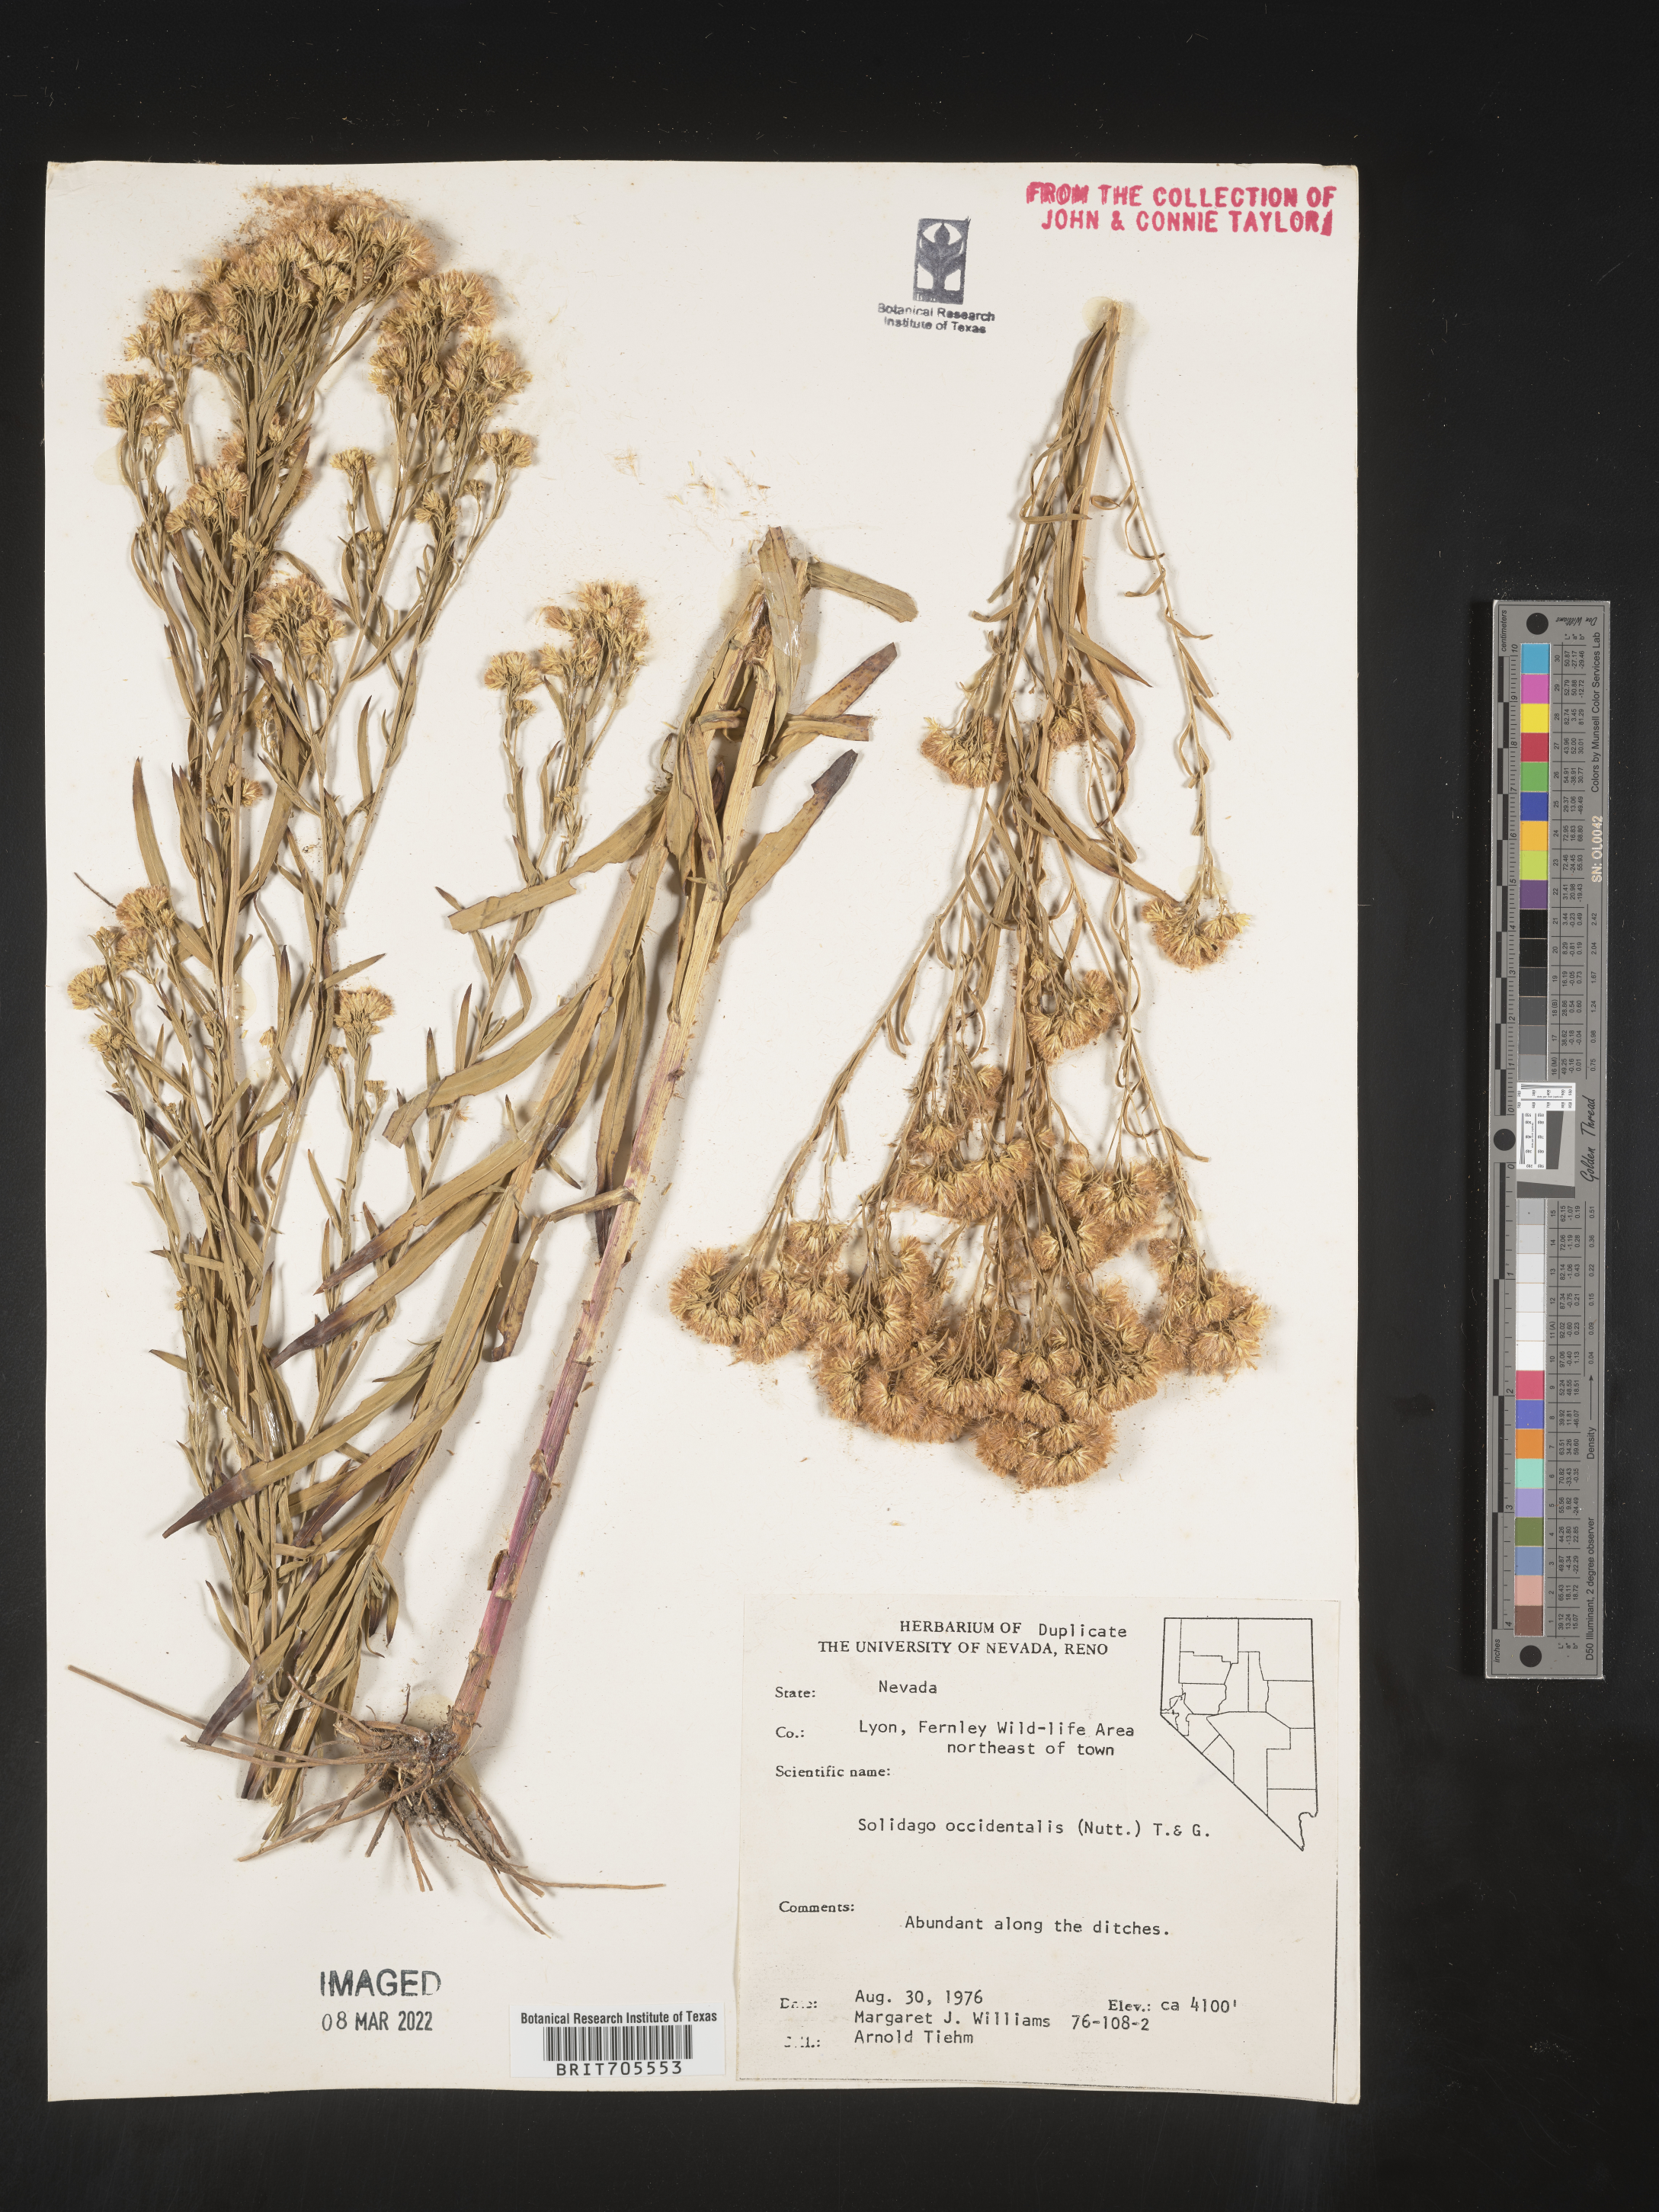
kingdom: Plantae
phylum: Tracheophyta
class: Magnoliopsida
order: Asterales
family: Asteraceae
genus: Euthamia
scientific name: Euthamia occidentalis
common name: Western goldentop
